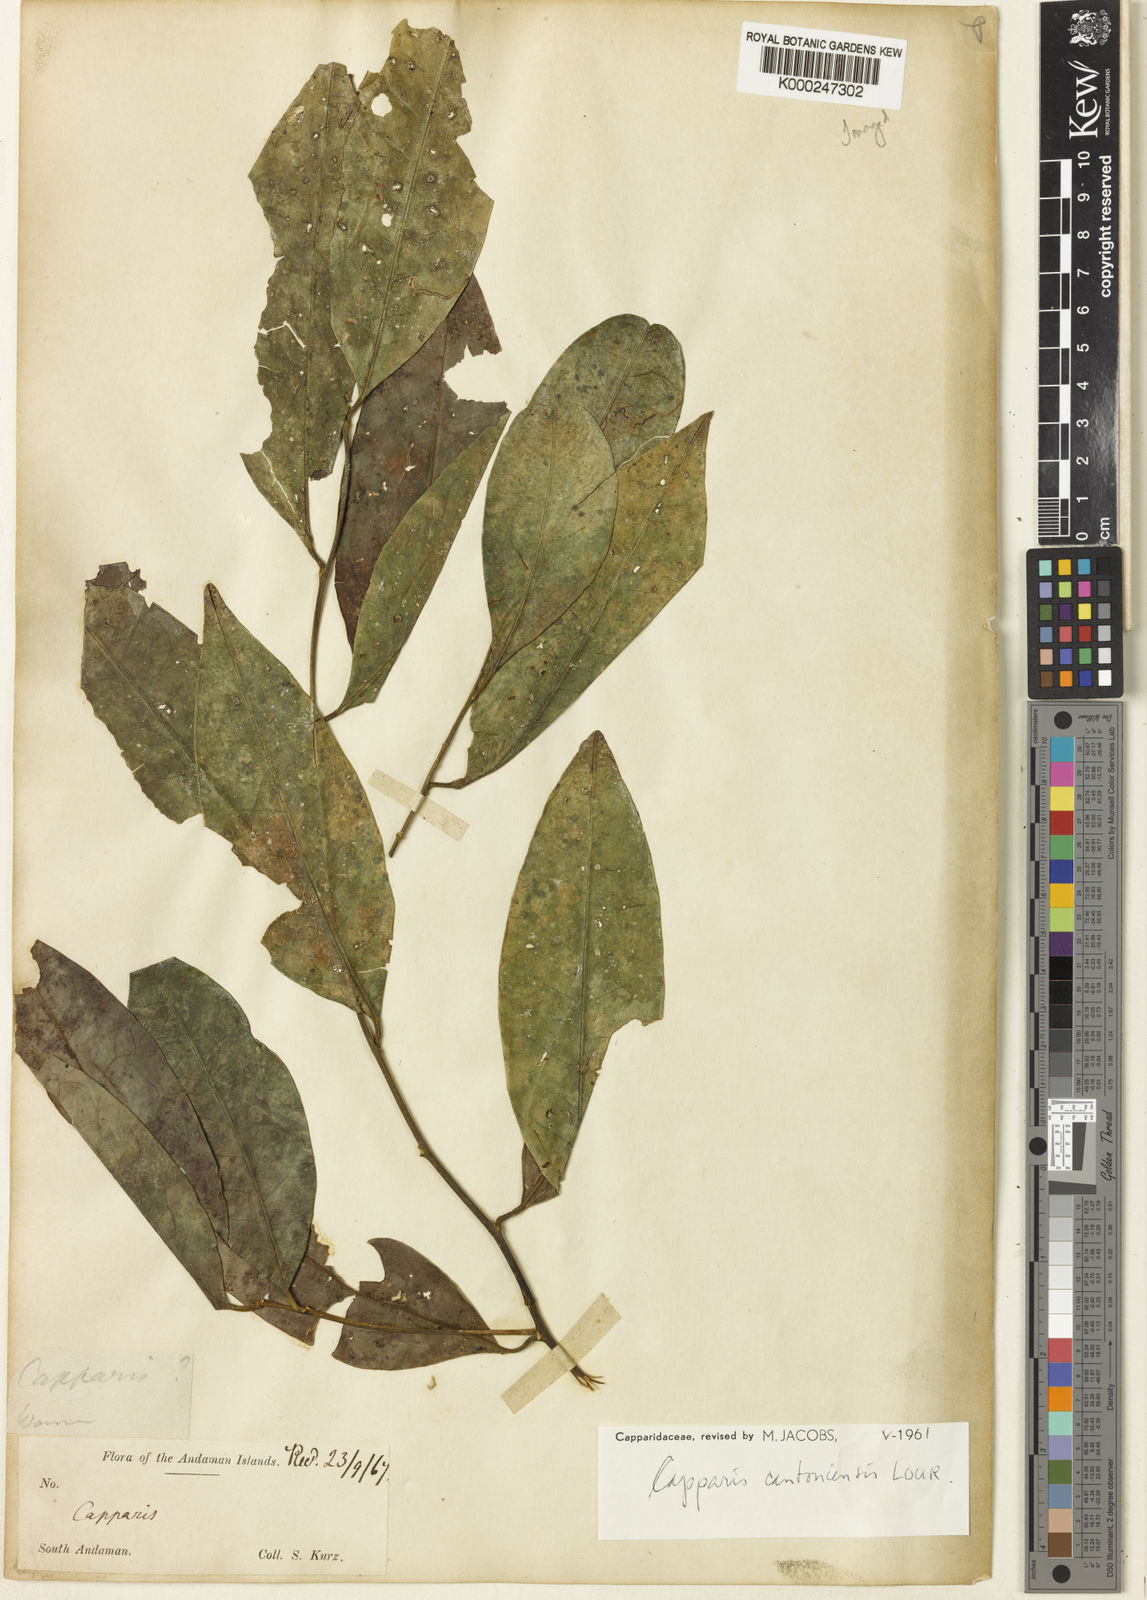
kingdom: Plantae
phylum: Tracheophyta
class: Magnoliopsida
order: Brassicales
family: Capparaceae
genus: Capparis
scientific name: Capparis cantoniensis
